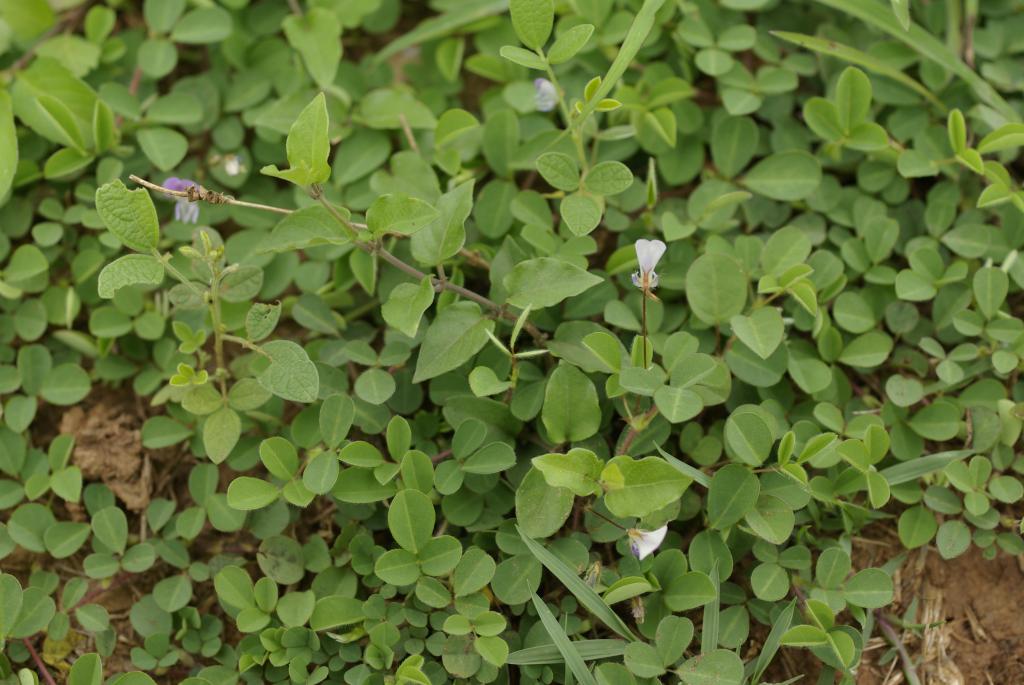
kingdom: Plantae
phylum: Tracheophyta
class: Magnoliopsida
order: Fabales
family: Fabaceae
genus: Grona
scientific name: Grona heterophylla
